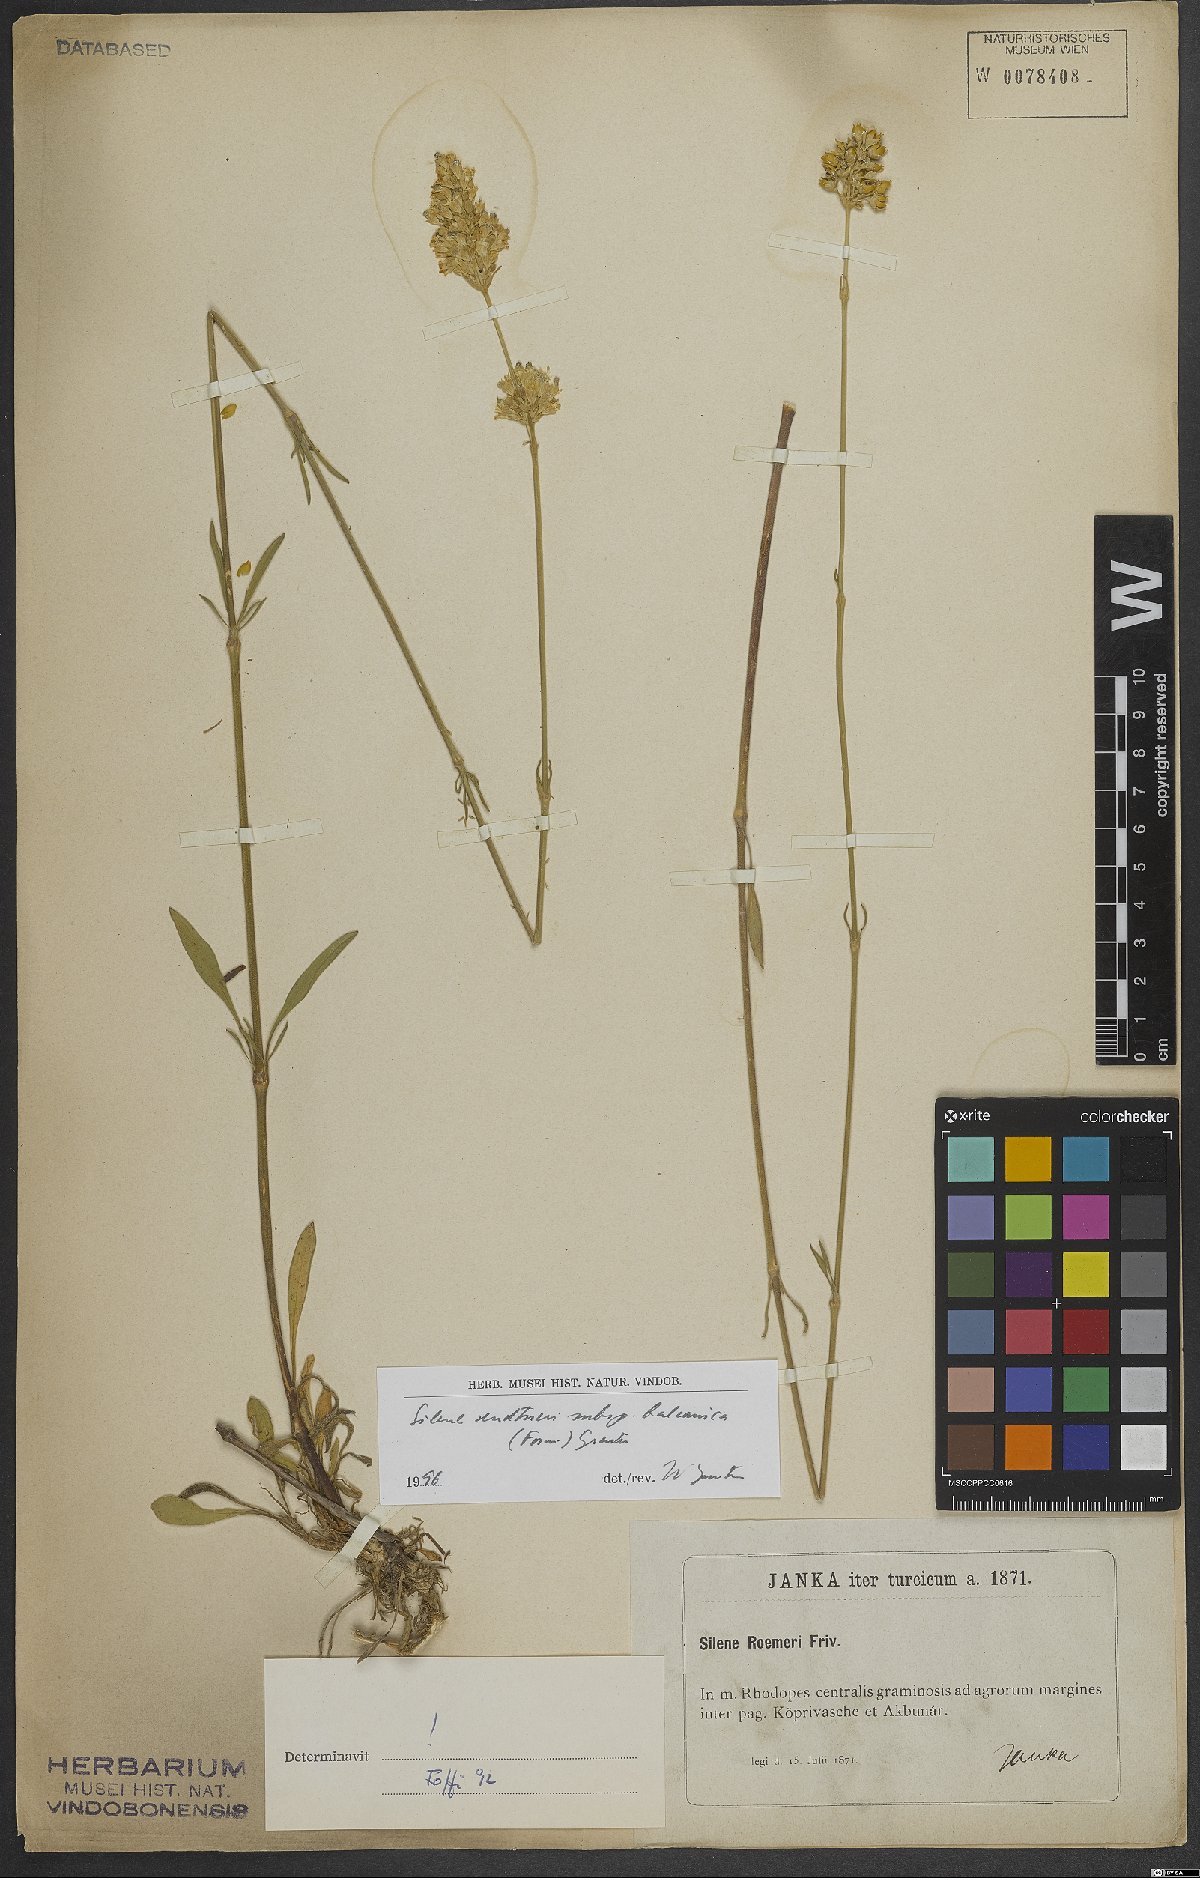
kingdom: Plantae
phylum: Tracheophyta
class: Magnoliopsida
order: Caryophyllales
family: Caryophyllaceae
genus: Silene
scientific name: Silene sendtneri
